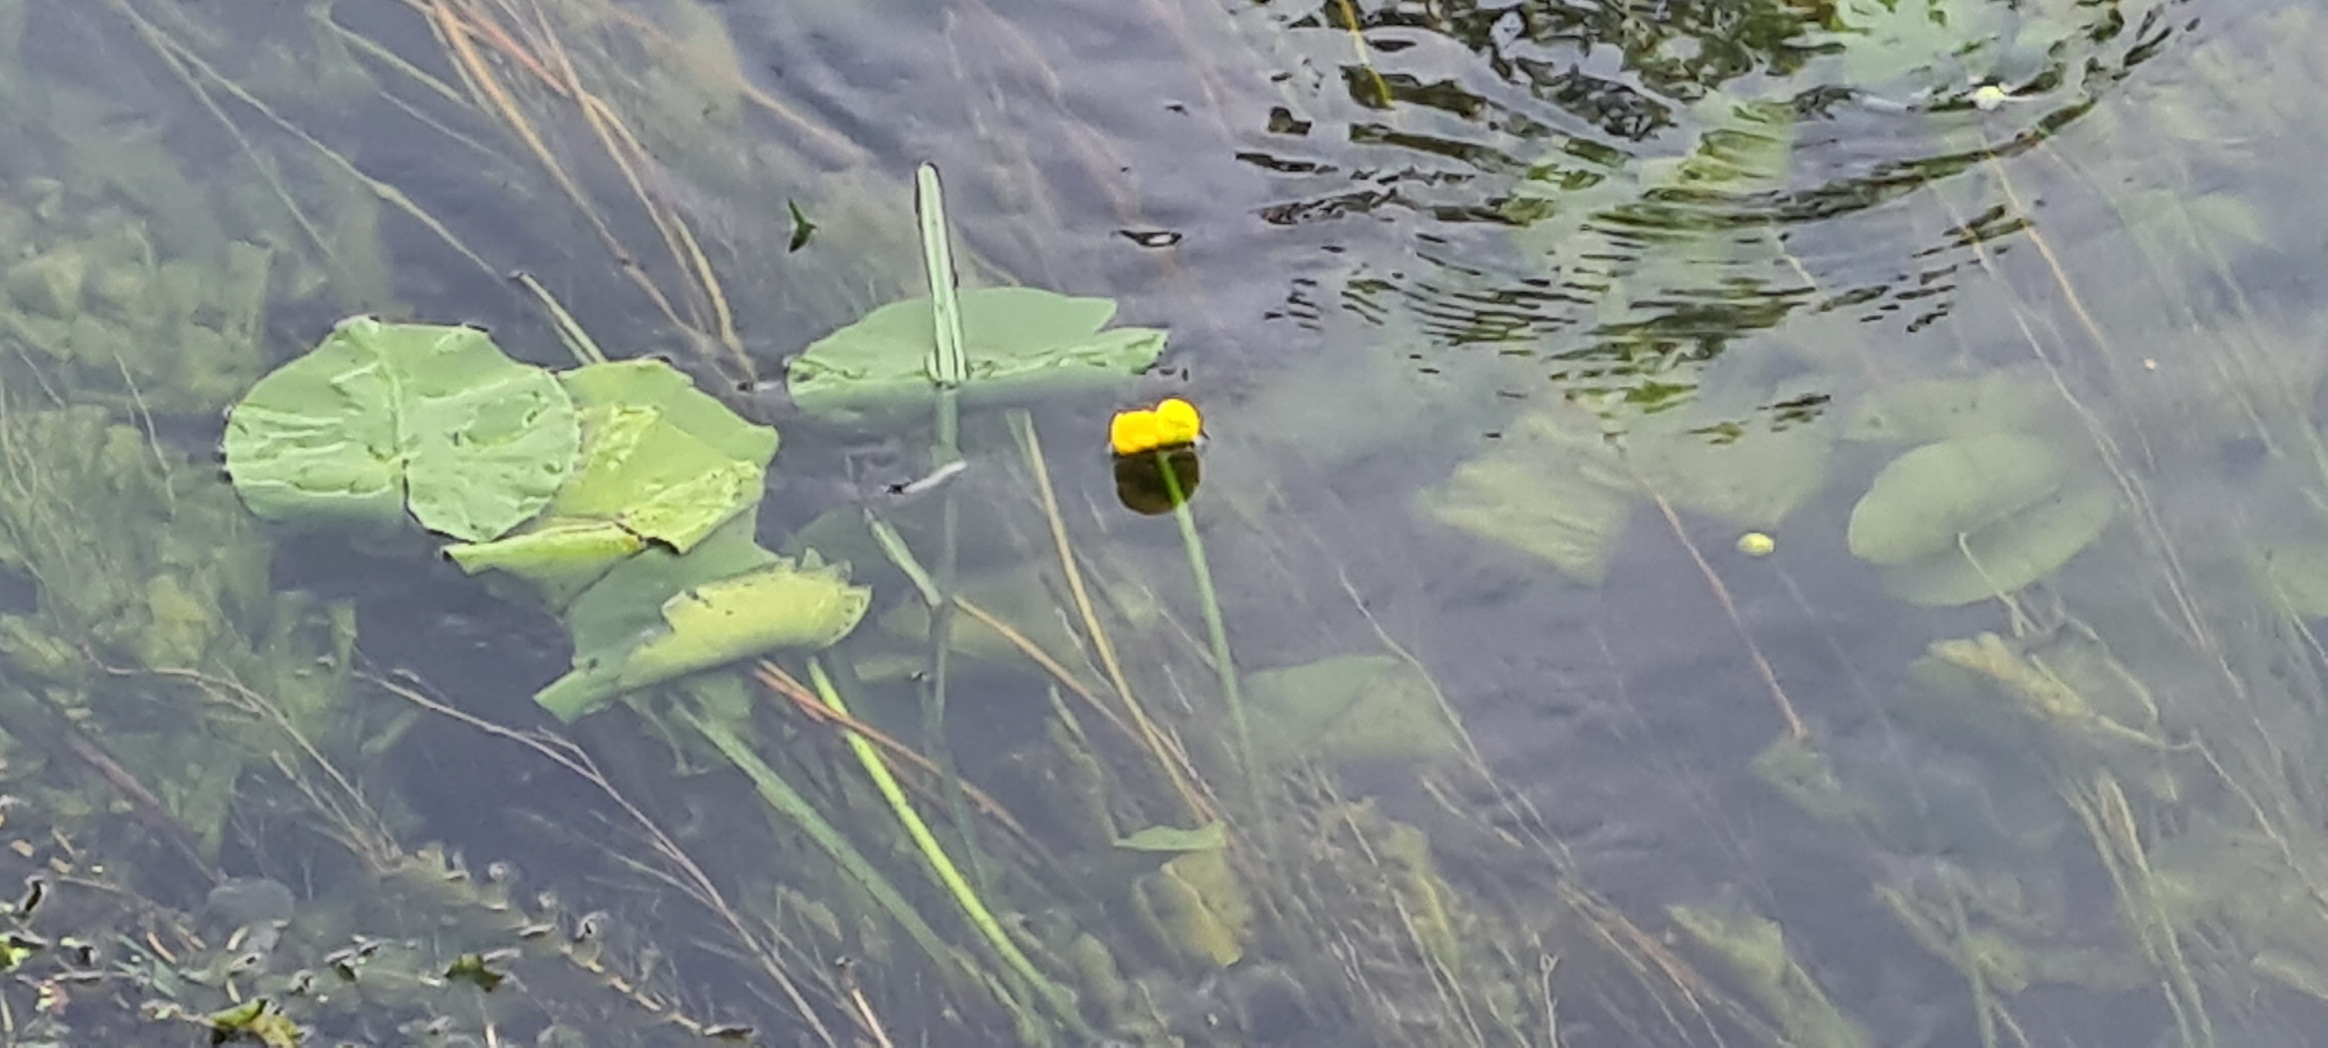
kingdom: Plantae
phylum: Tracheophyta
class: Magnoliopsida
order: Nymphaeales
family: Nymphaeaceae
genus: Nuphar
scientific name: Nuphar lutea
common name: Gul åkande
